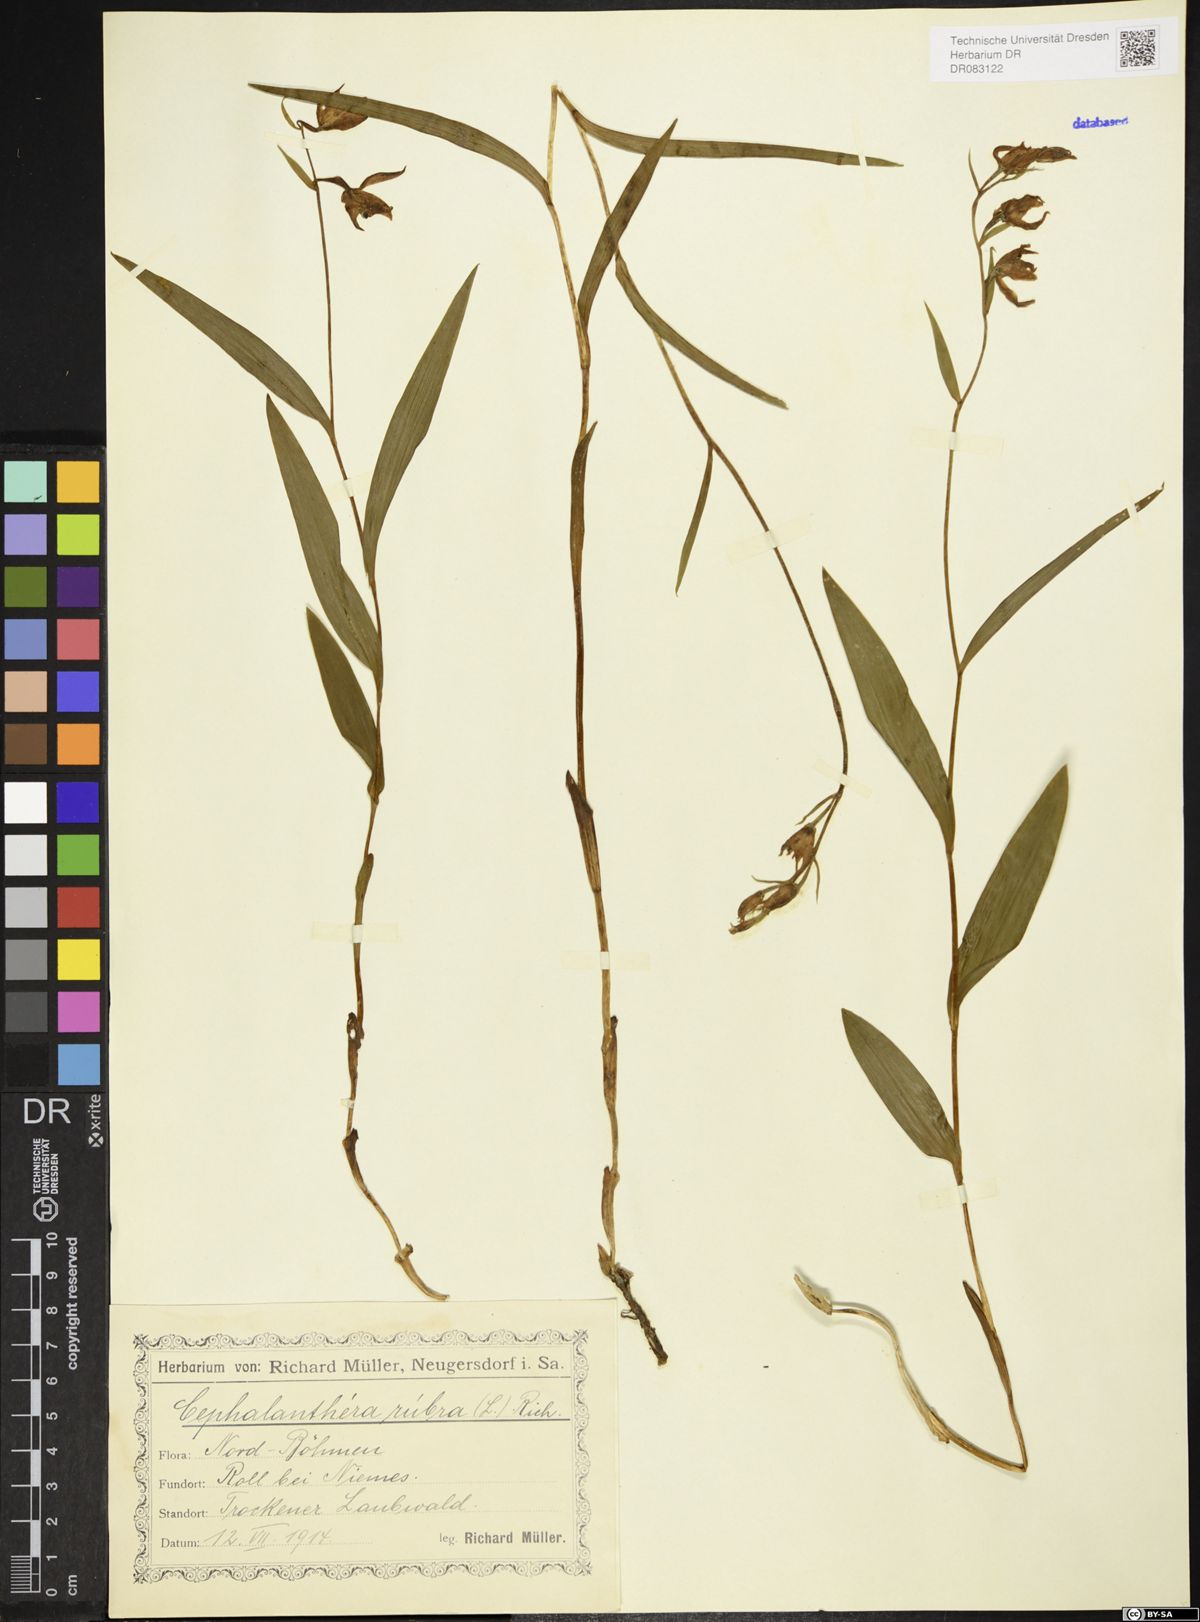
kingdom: Plantae
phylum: Tracheophyta
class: Liliopsida
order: Asparagales
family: Orchidaceae
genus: Cephalanthera
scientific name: Cephalanthera rubra
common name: Red helleborine
